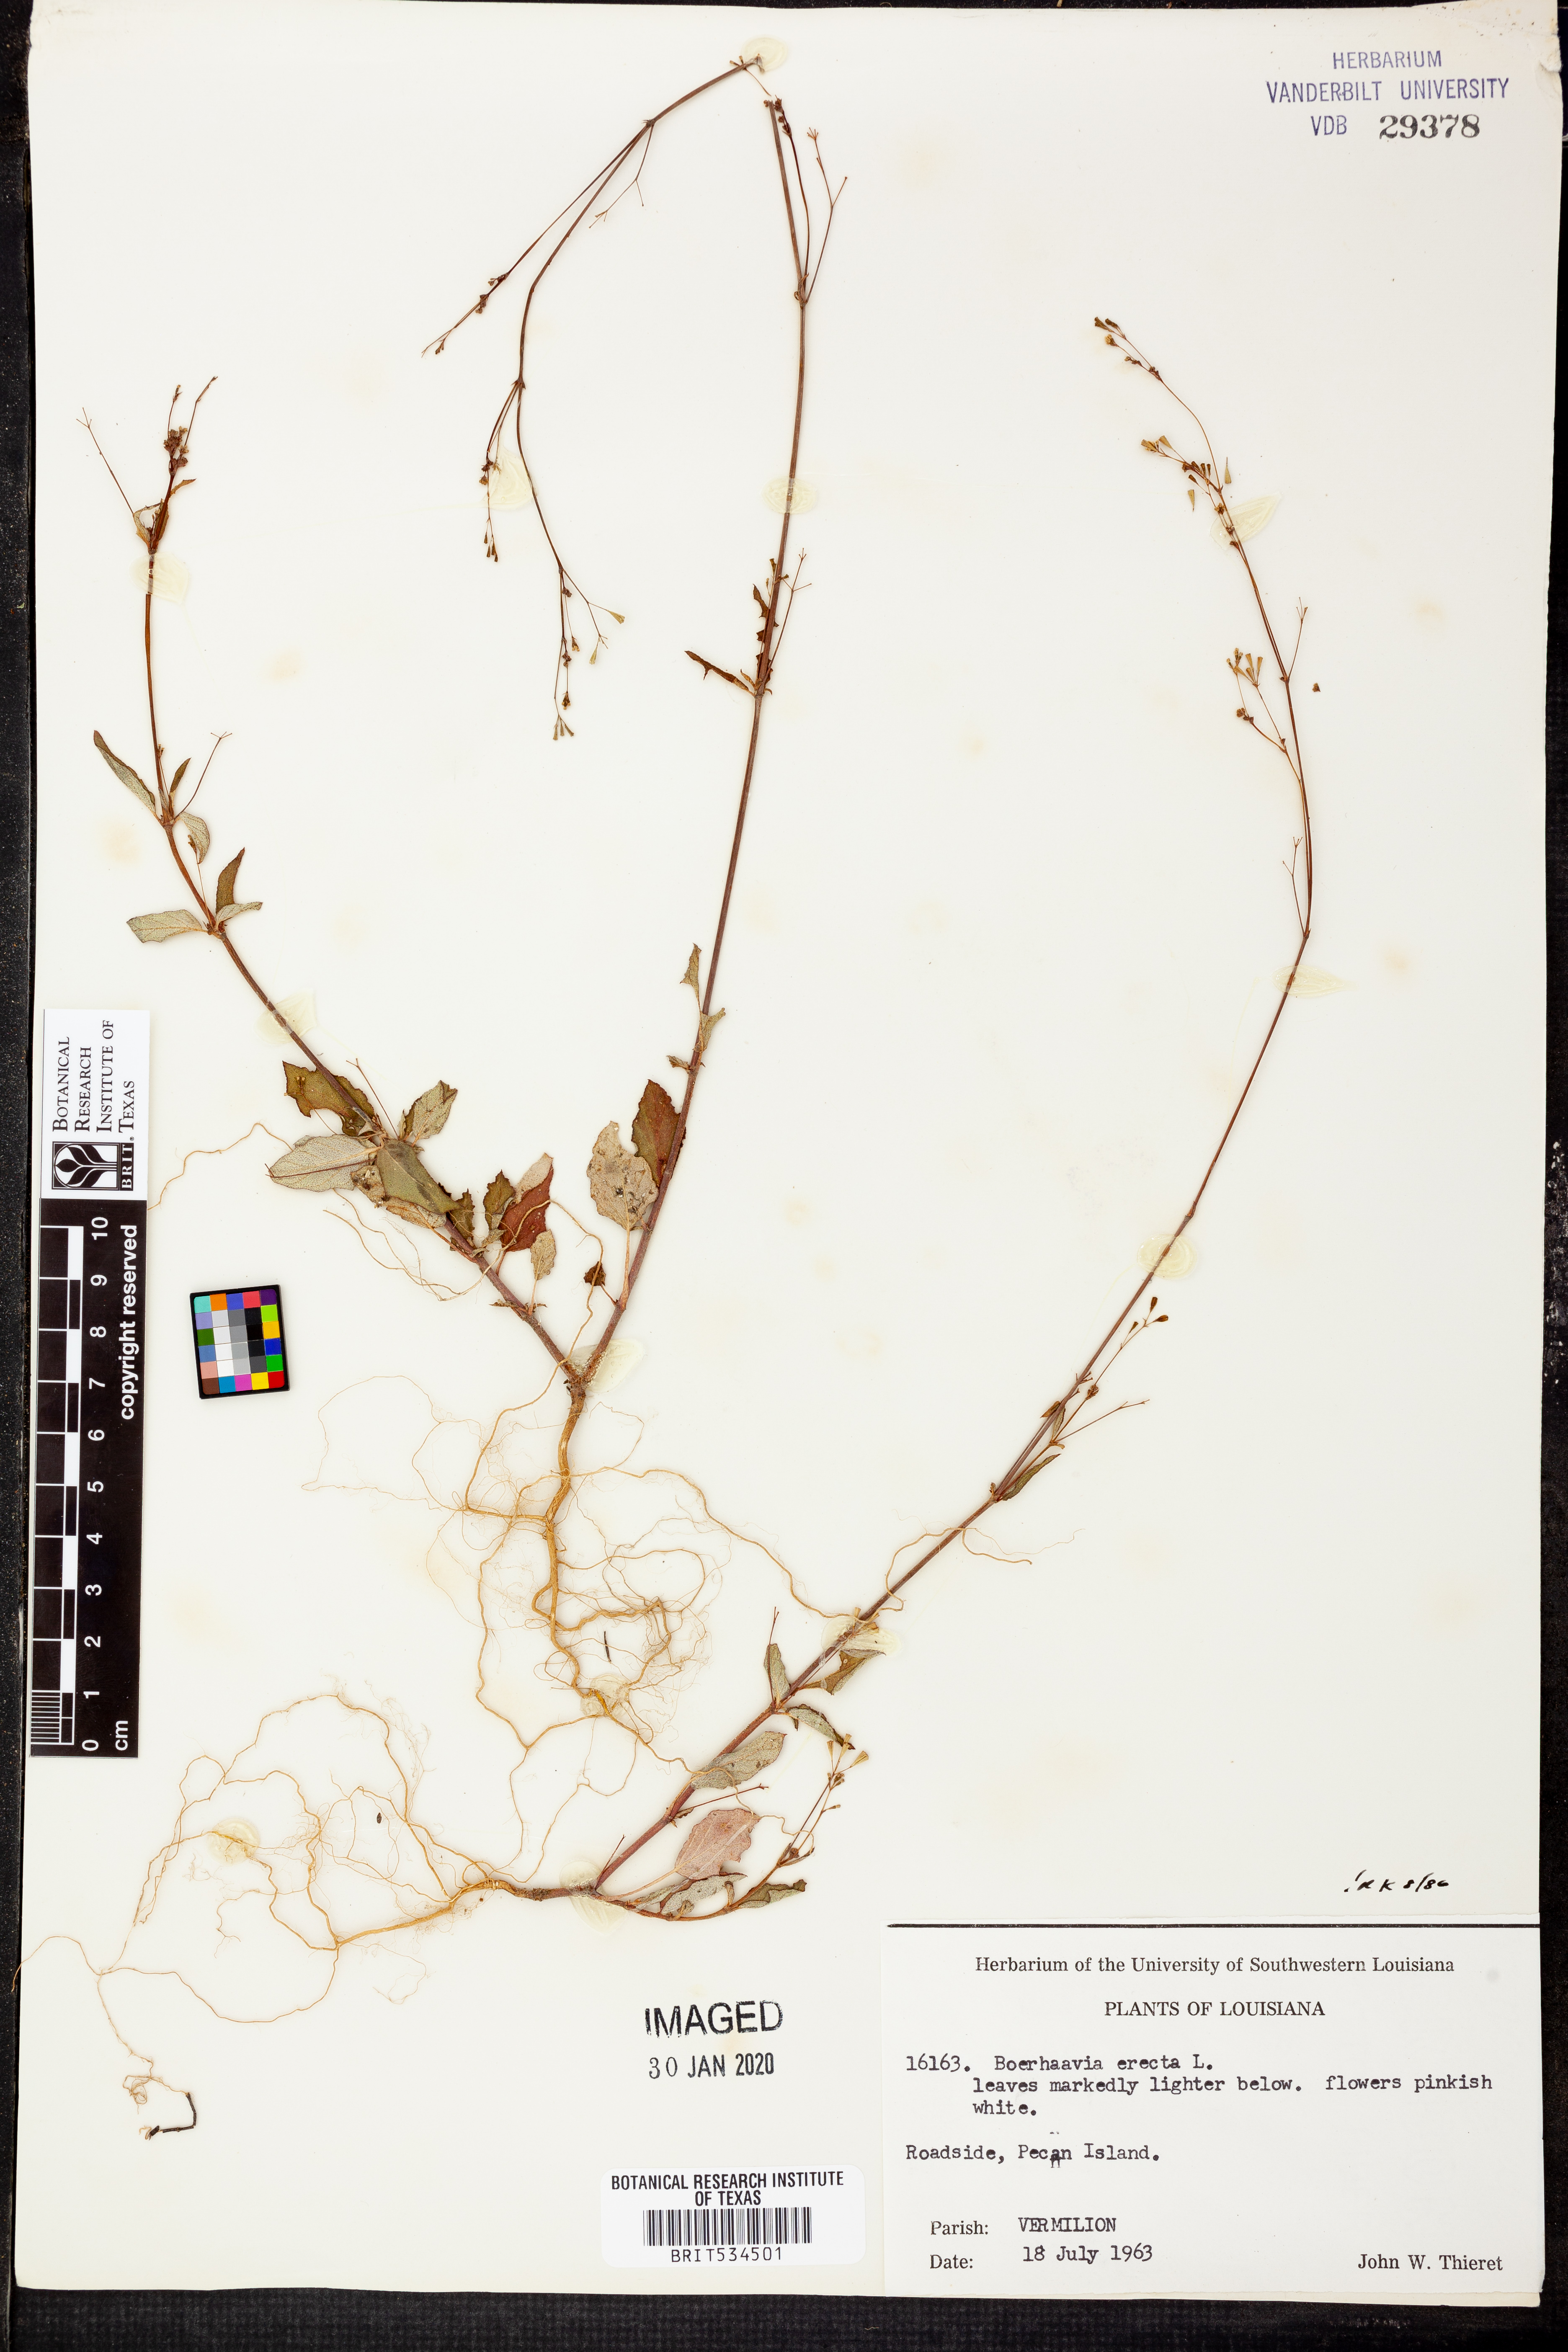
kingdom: Plantae
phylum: Tracheophyta
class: Magnoliopsida
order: Caryophyllales
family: Nyctaginaceae
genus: Boerhavia
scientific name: Boerhavia erecta
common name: Erect spiderling
